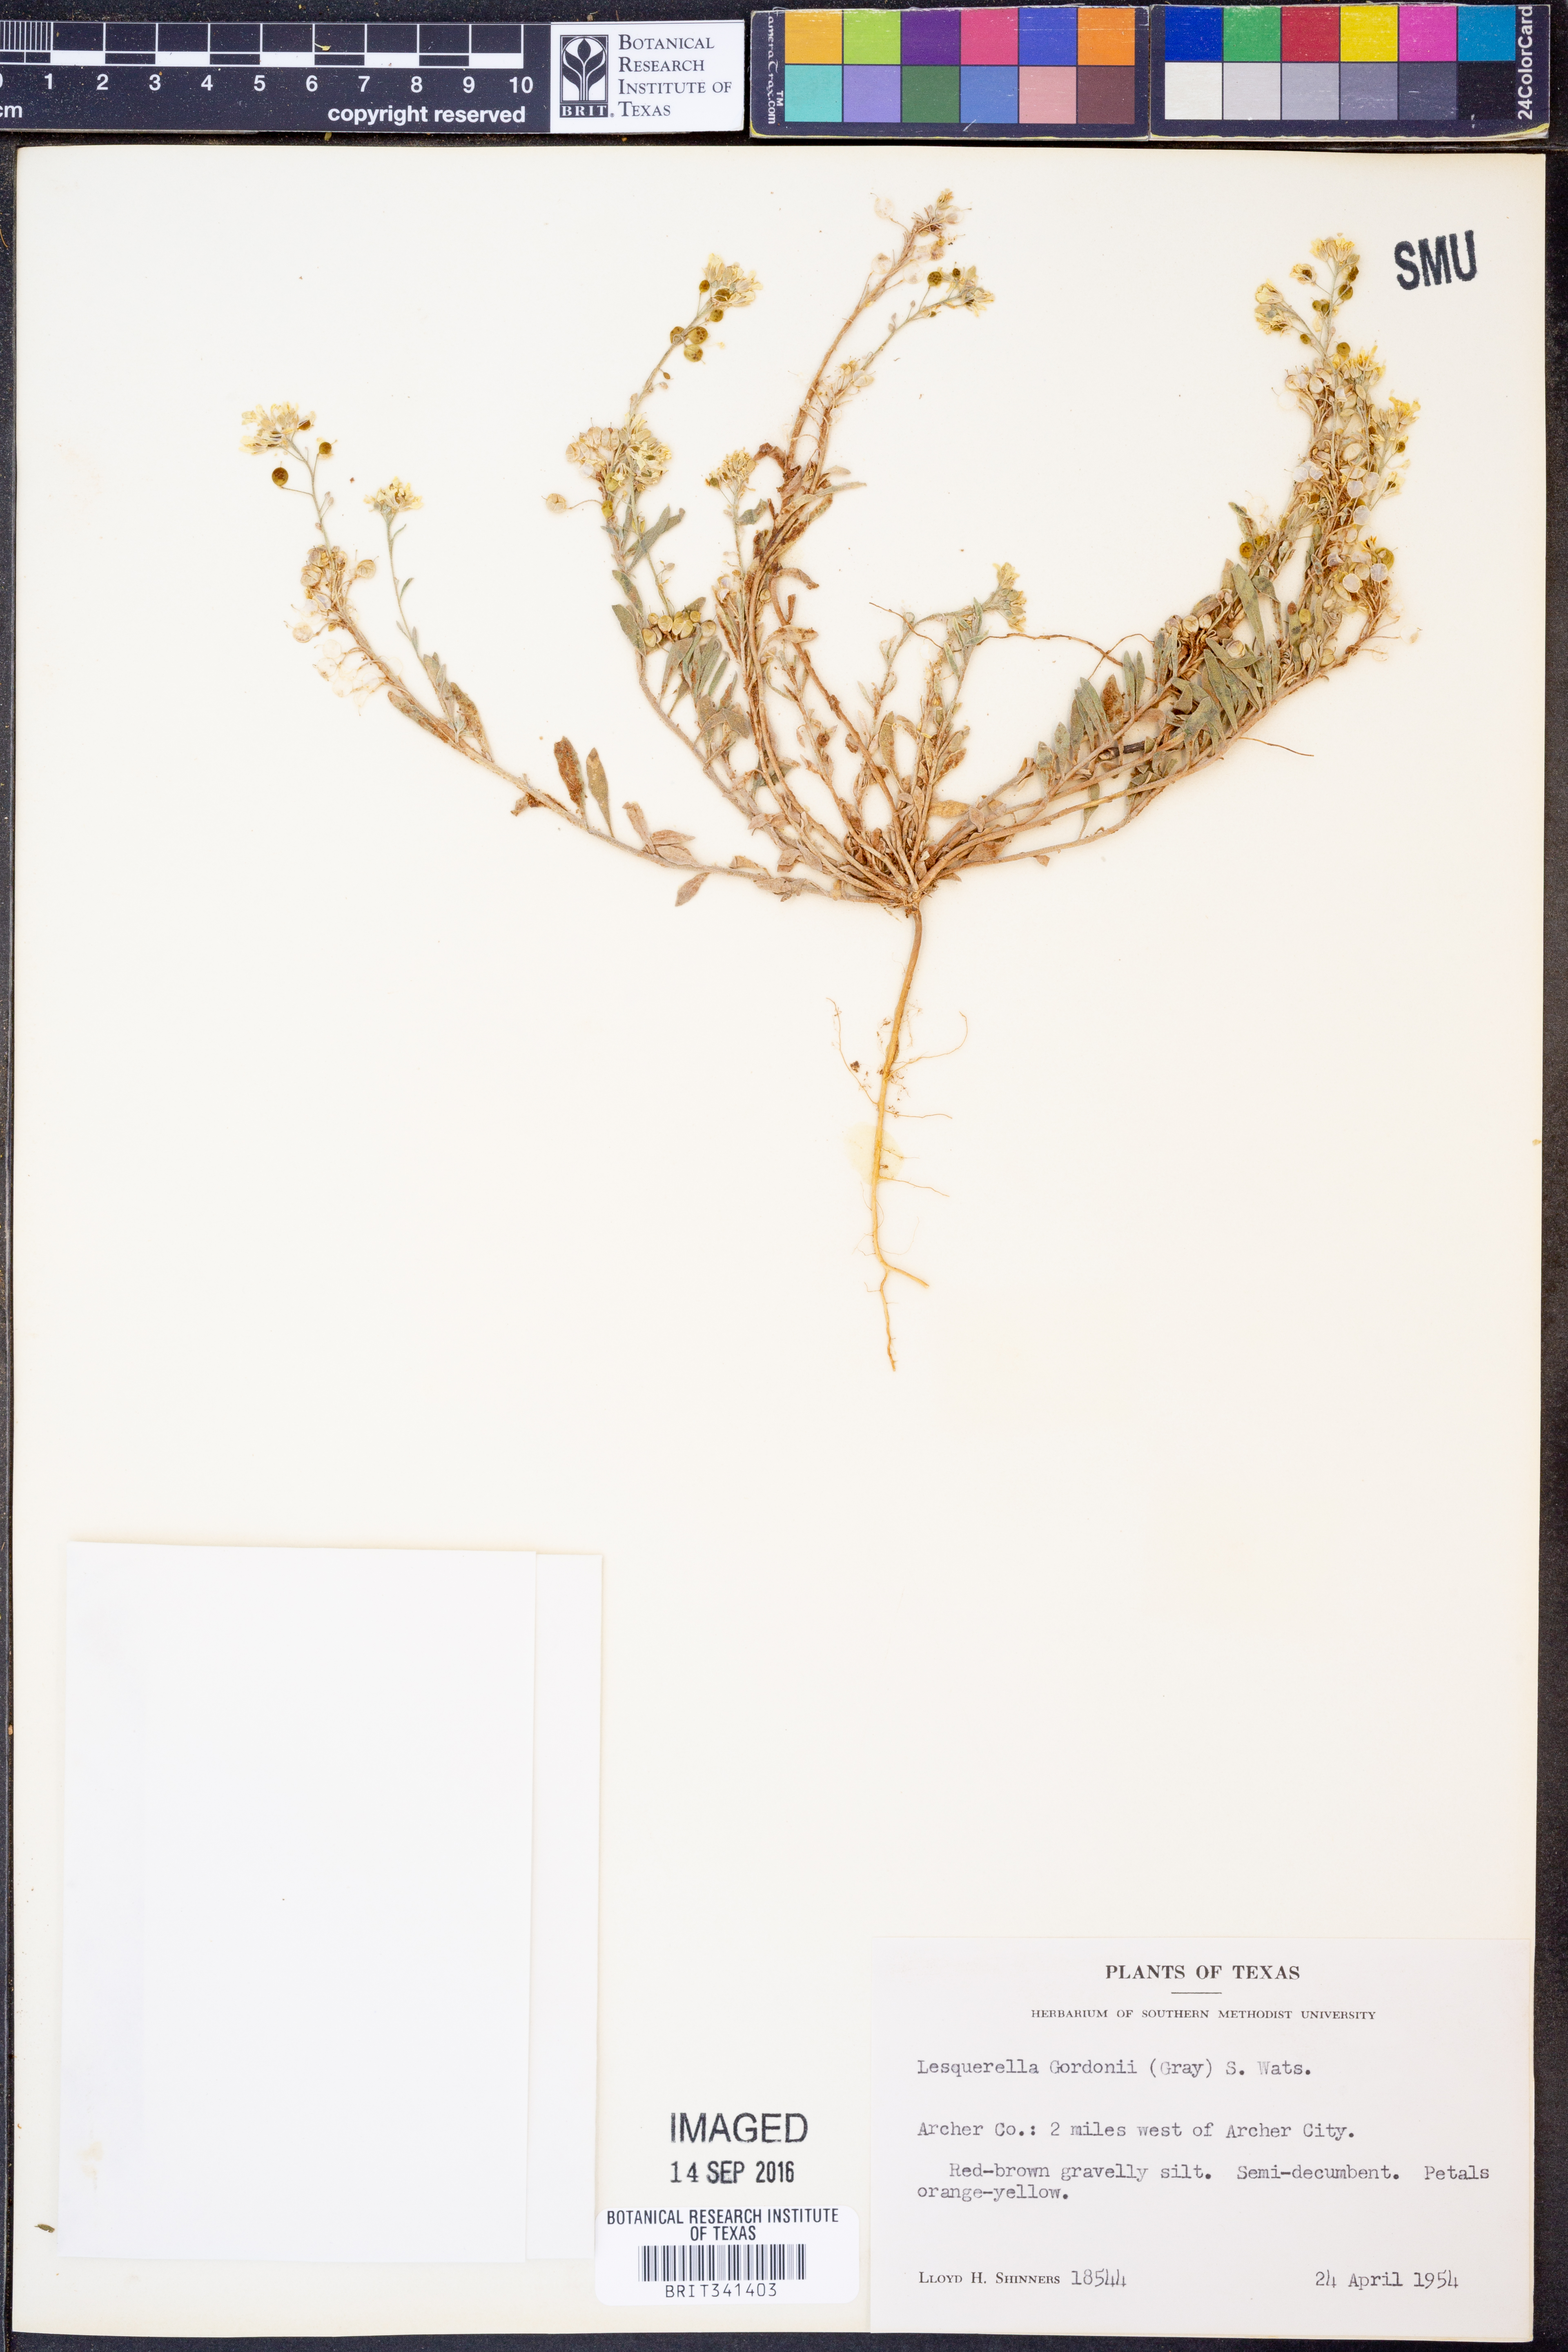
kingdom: Plantae
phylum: Tracheophyta
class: Magnoliopsida
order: Brassicales
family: Brassicaceae
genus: Physaria
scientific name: Physaria gordonii
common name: Gordon's bladderpod
